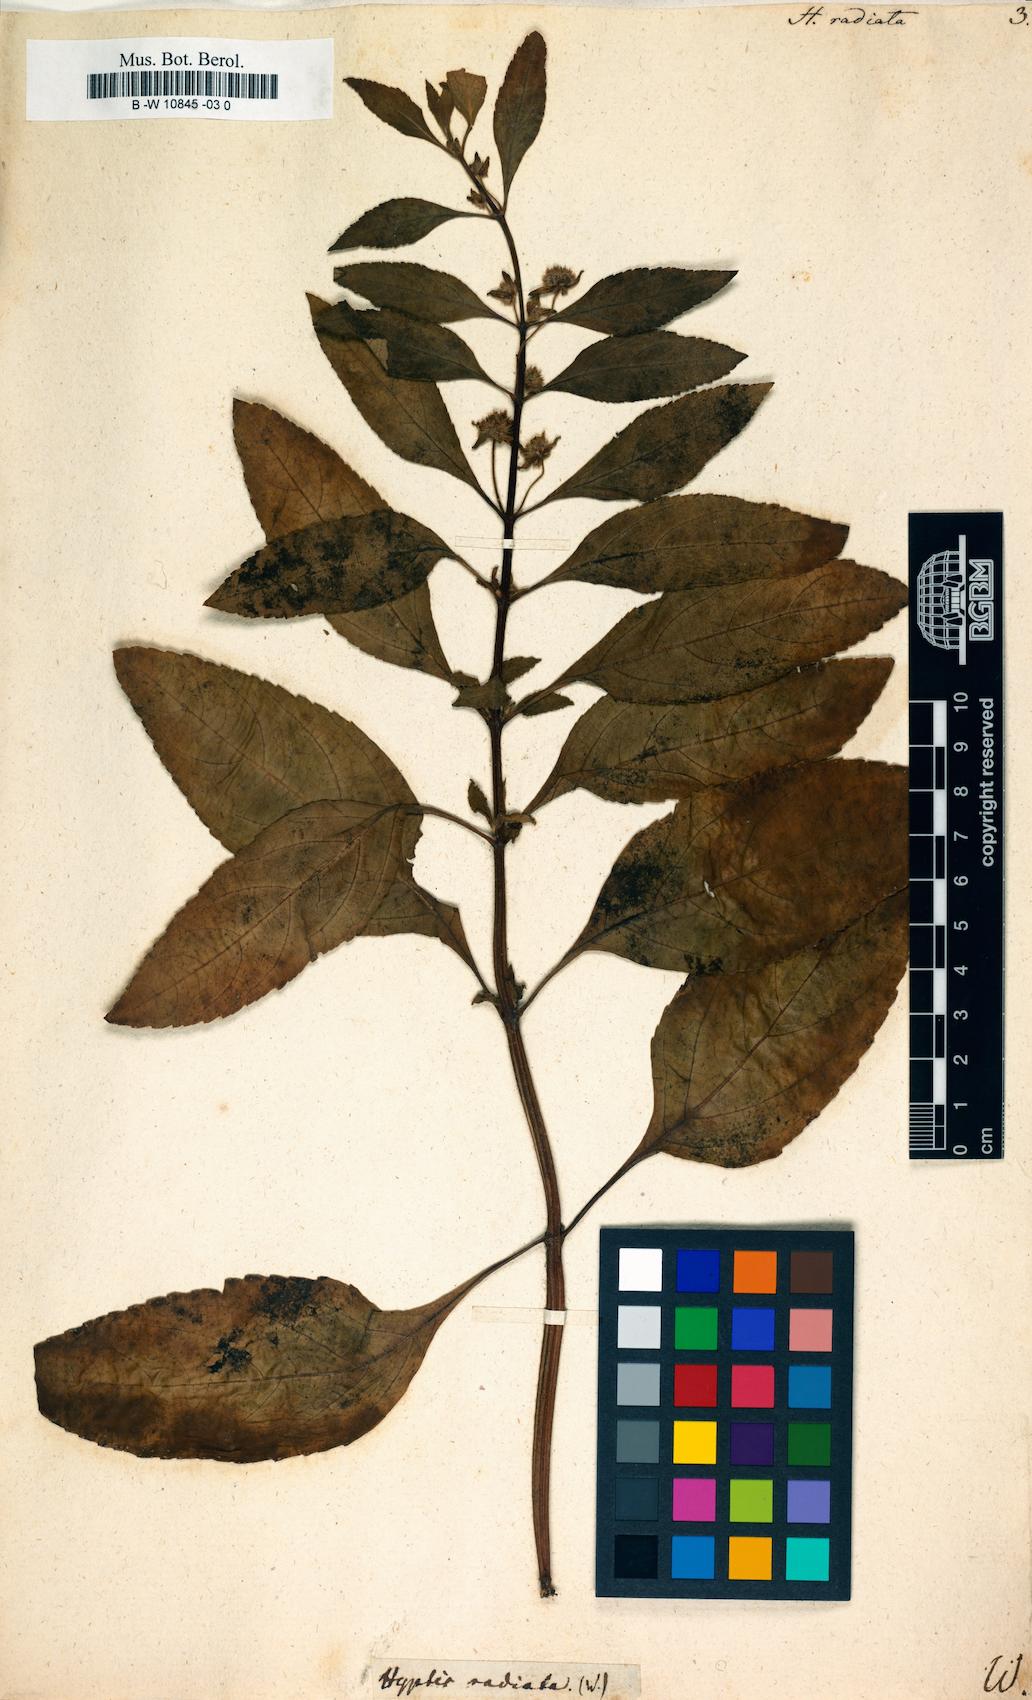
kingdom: Plantae
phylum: Tracheophyta
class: Magnoliopsida
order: Lamiales
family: Lamiaceae
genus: Hyptis
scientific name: Hyptis
